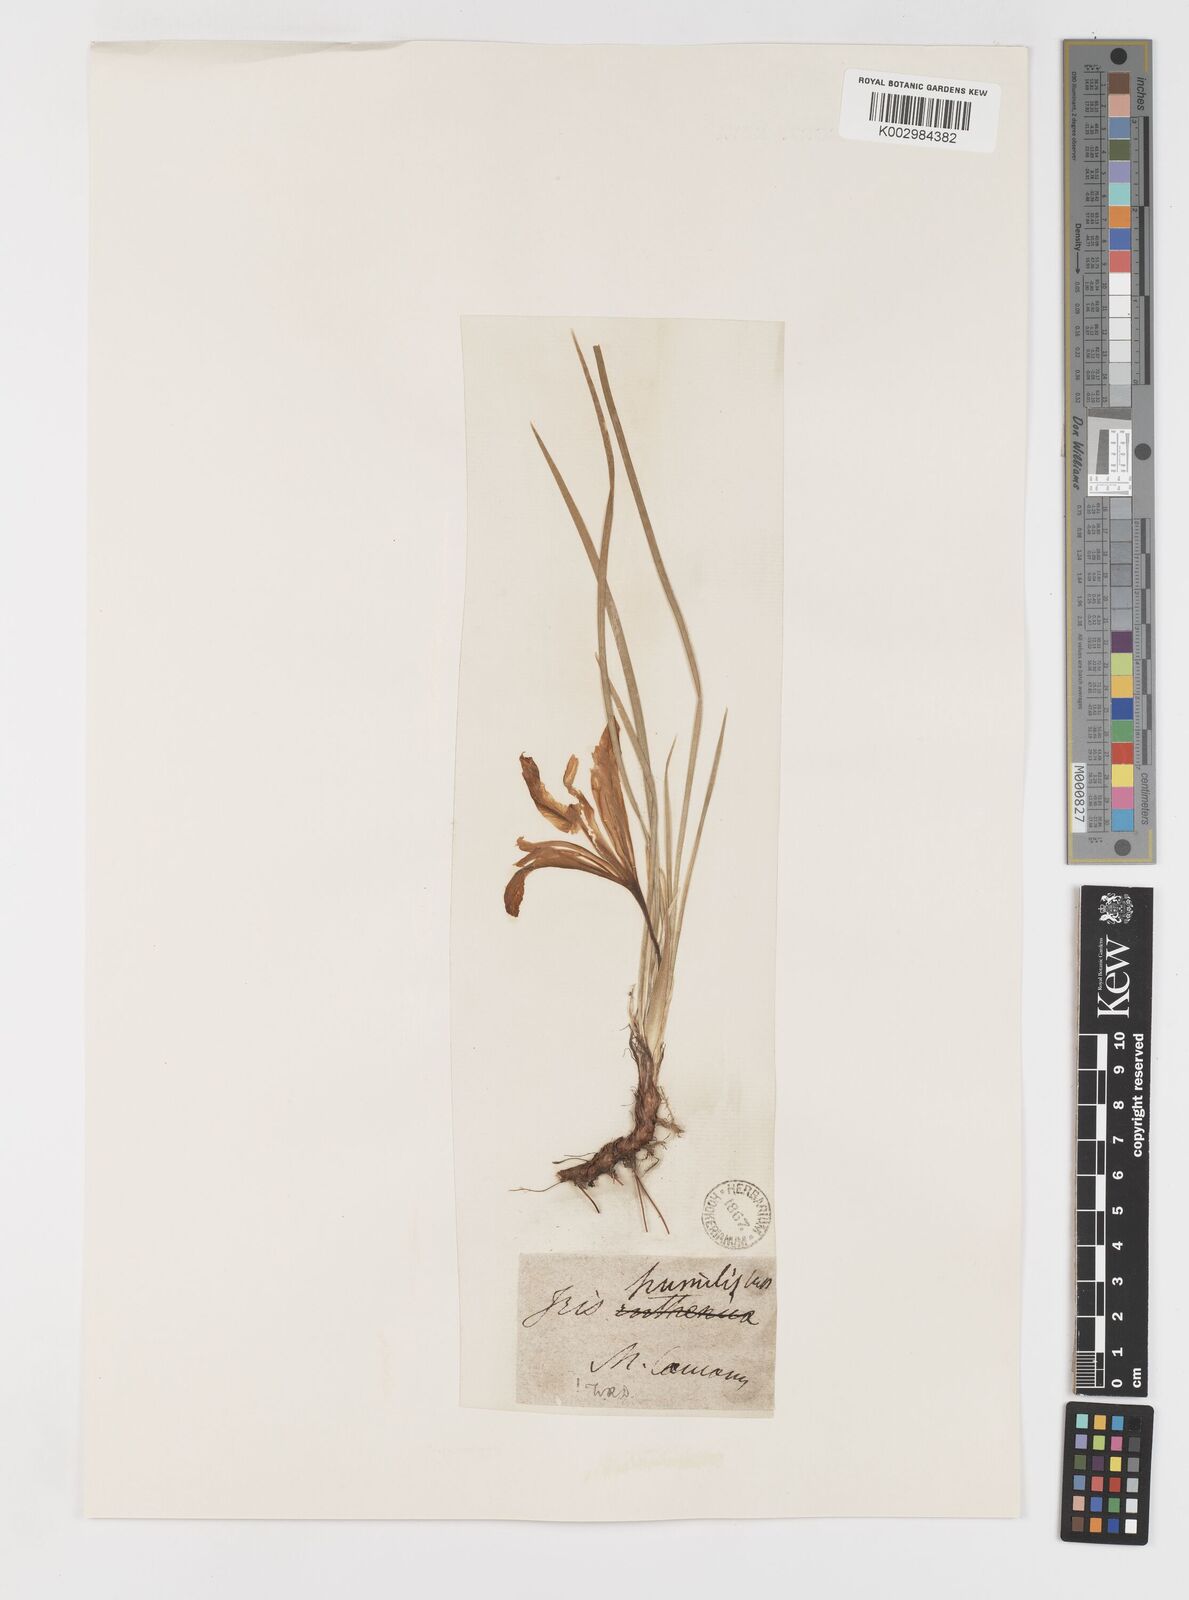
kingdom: Plantae
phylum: Tracheophyta
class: Liliopsida
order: Asparagales
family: Iridaceae
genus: Iris
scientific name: Iris pontica
